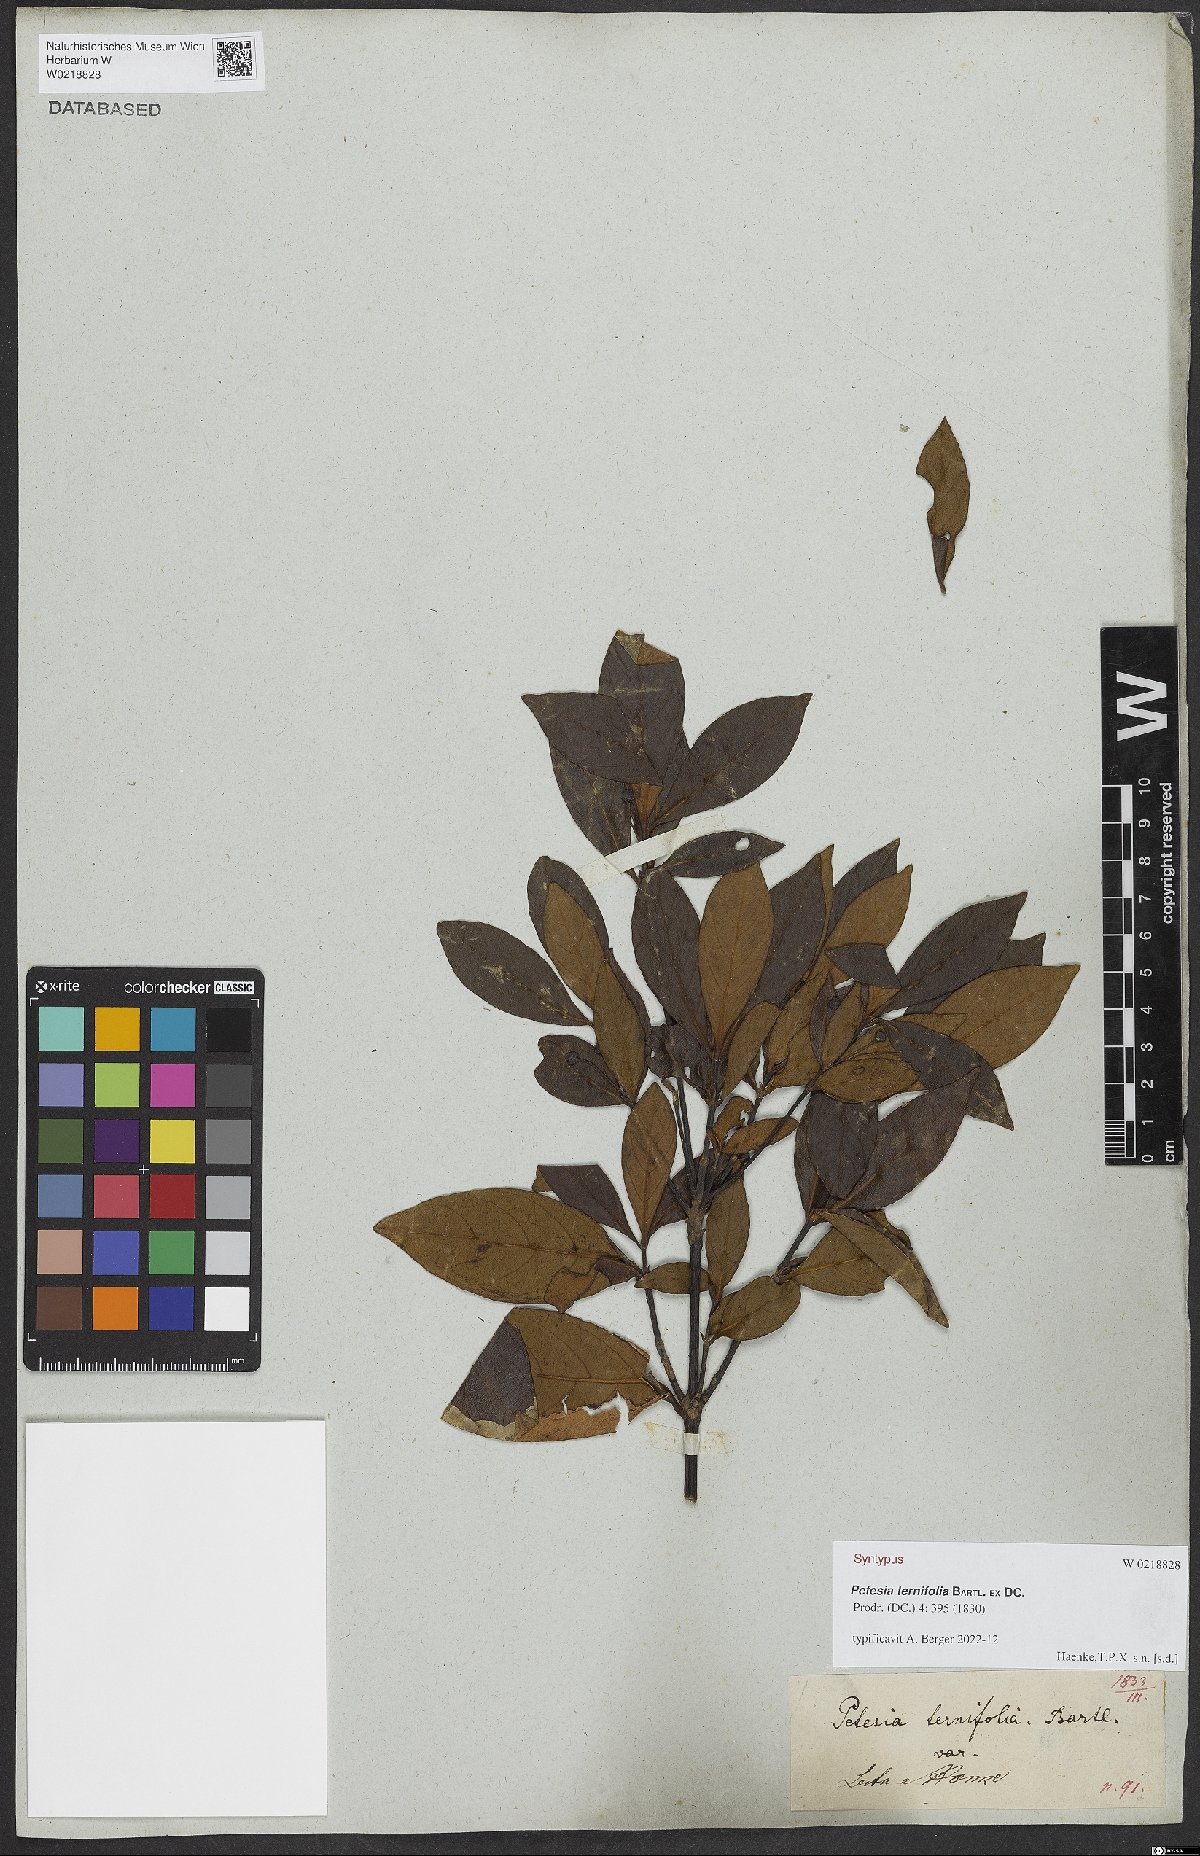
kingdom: Plantae
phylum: Tracheophyta
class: Magnoliopsida
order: Gentianales
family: Rubiaceae
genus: Timonius
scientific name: Timonius ternifolius
